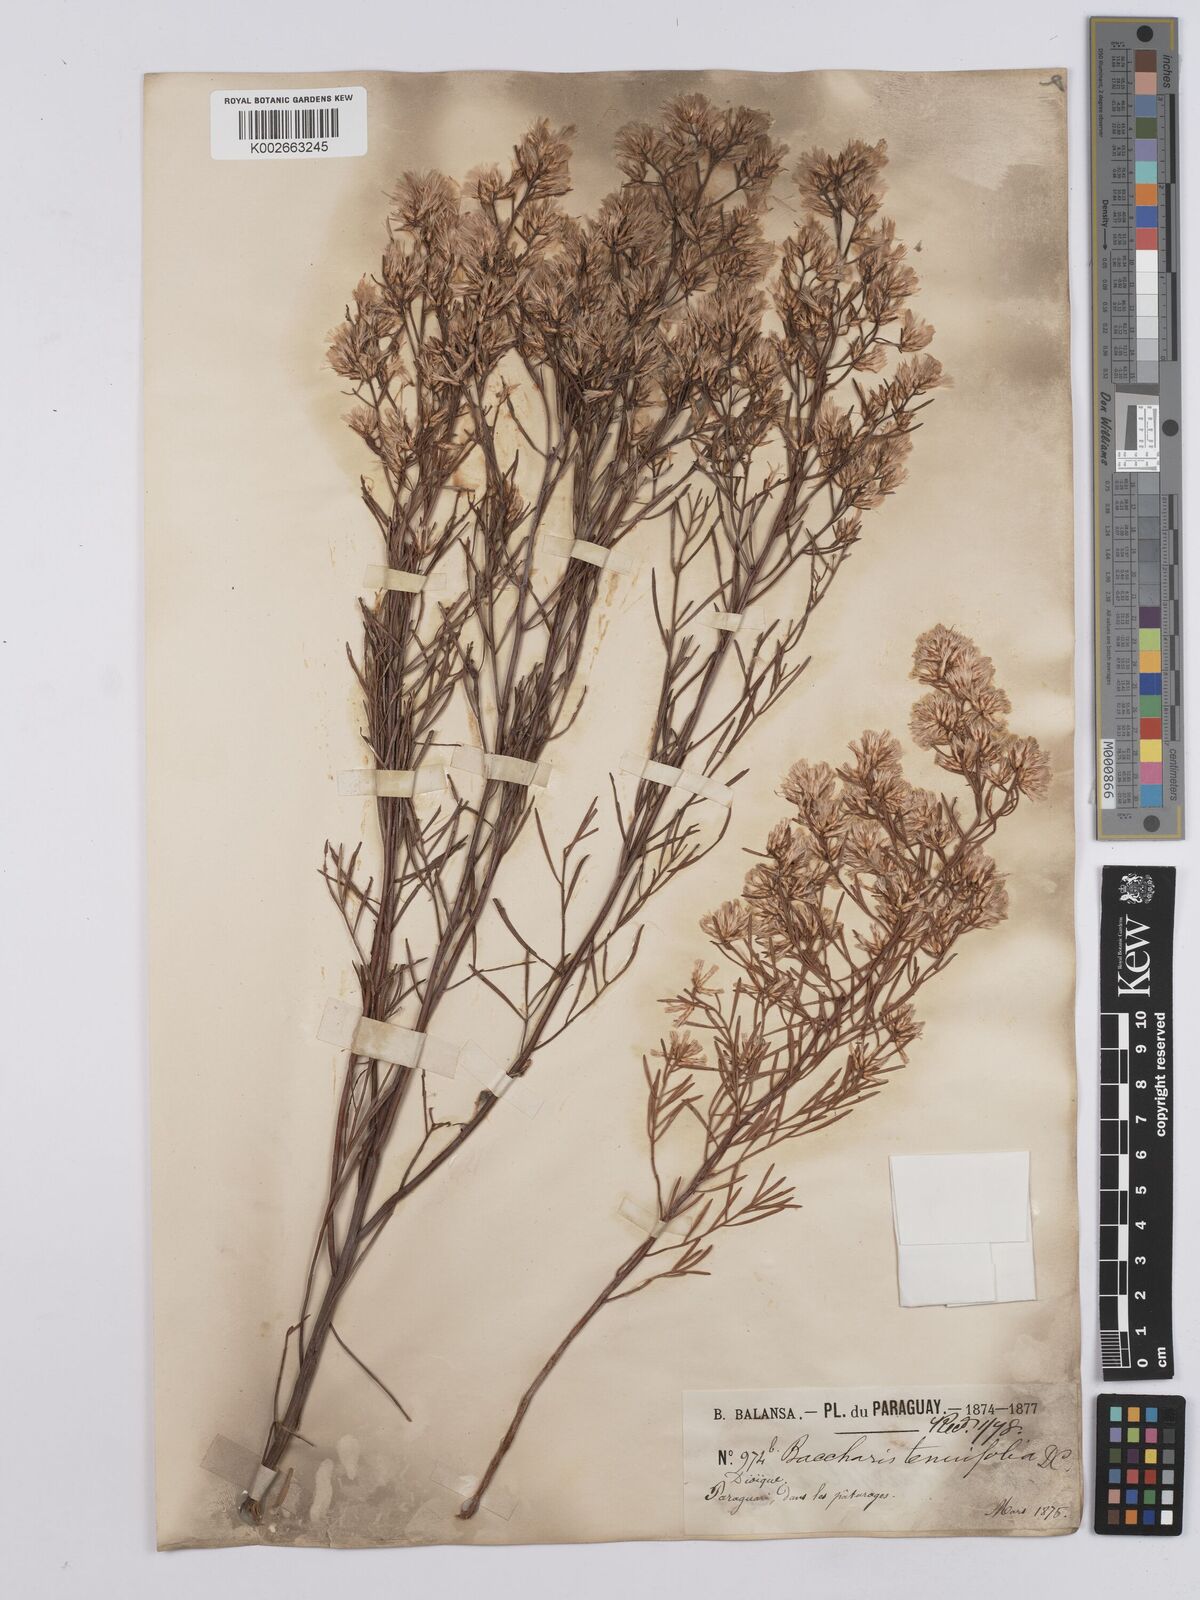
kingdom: Plantae
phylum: Tracheophyta
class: Magnoliopsida
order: Asterales
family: Asteraceae
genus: Baccharis
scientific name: Baccharis pseudotenuifolia
